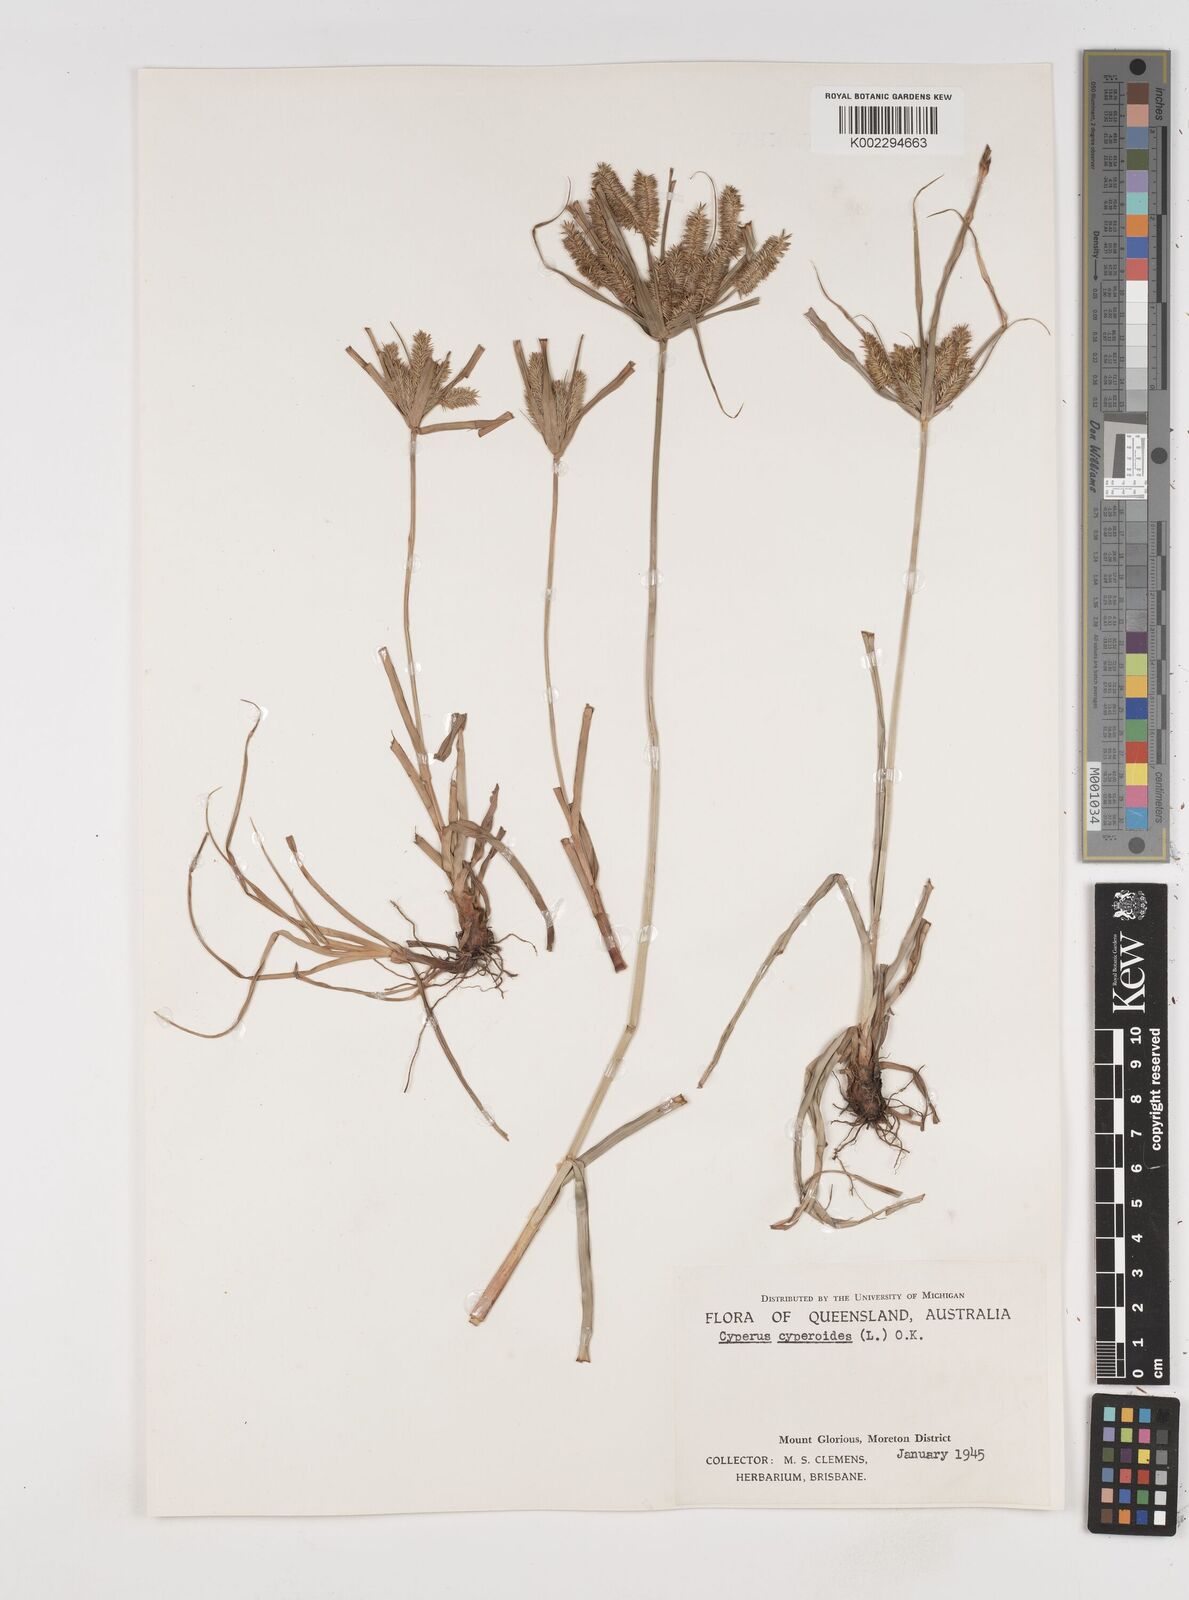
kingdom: Plantae
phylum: Tracheophyta
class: Liliopsida
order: Poales
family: Cyperaceae
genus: Cyperus
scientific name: Cyperus cyperoides
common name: Pacific island flat sedge
